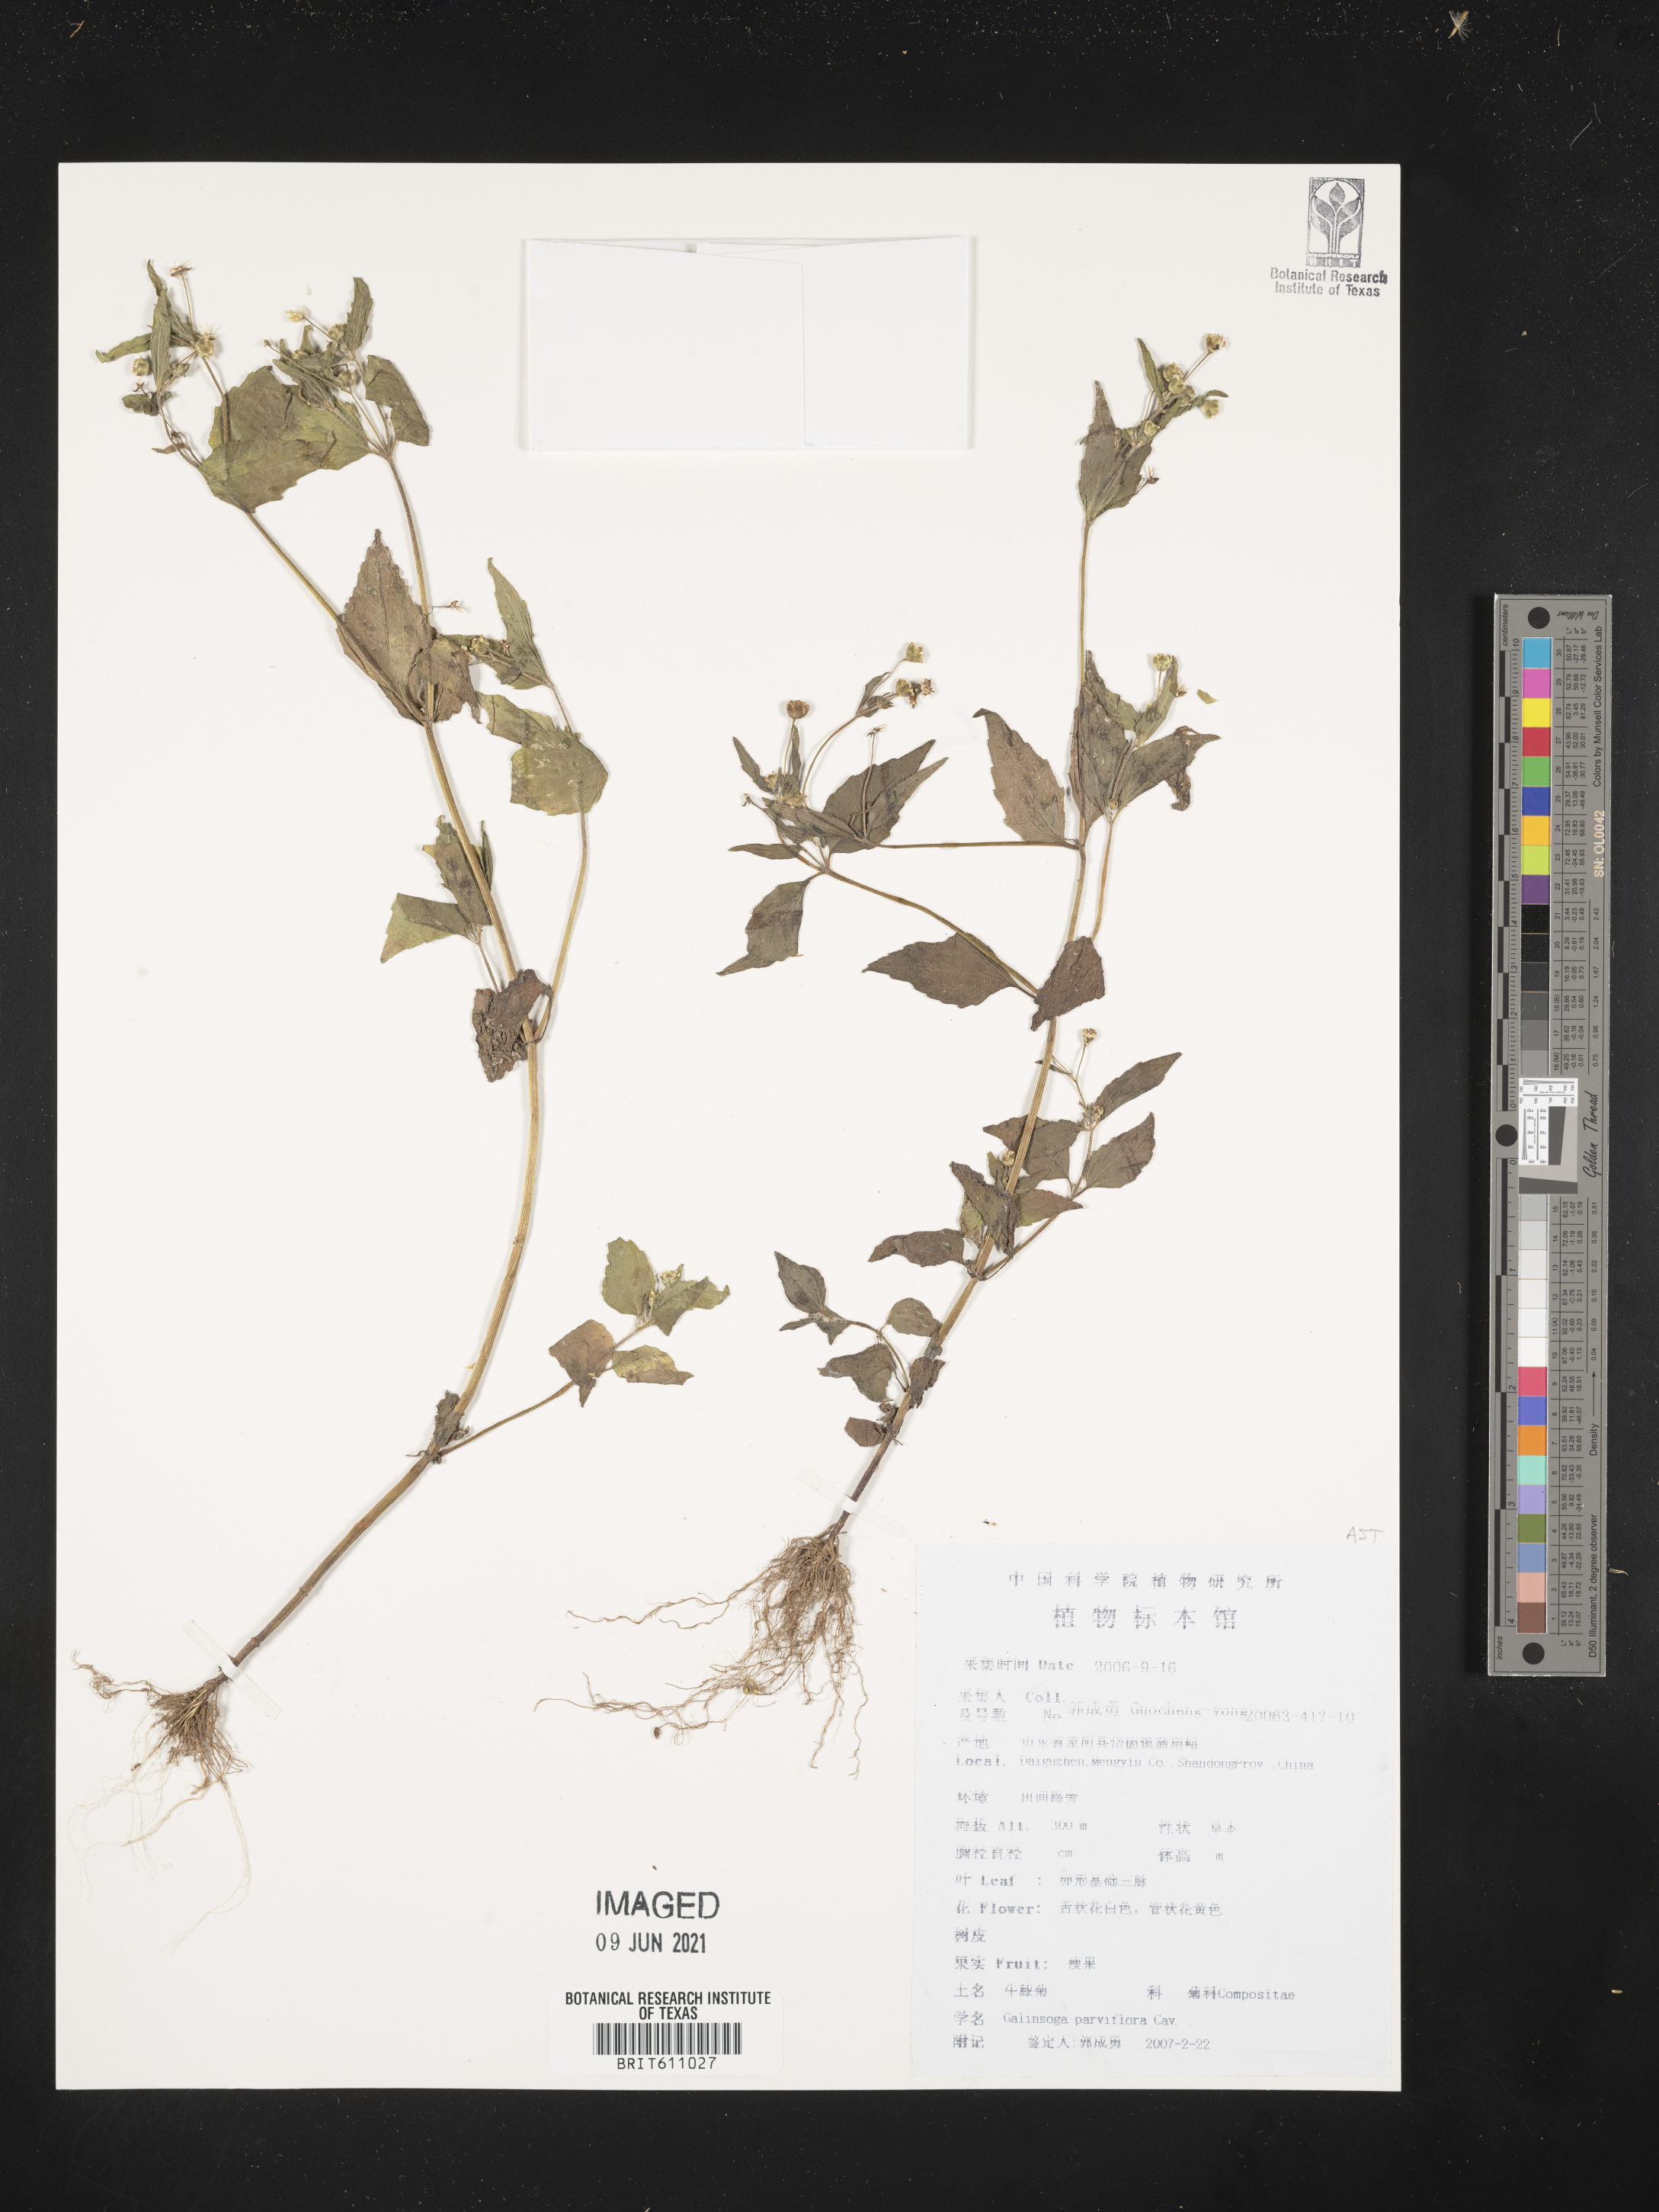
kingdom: Plantae
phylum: Tracheophyta
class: Magnoliopsida
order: Asterales
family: Asteraceae
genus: Galinsoga
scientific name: Galinsoga parviflora
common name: Gallant soldier
